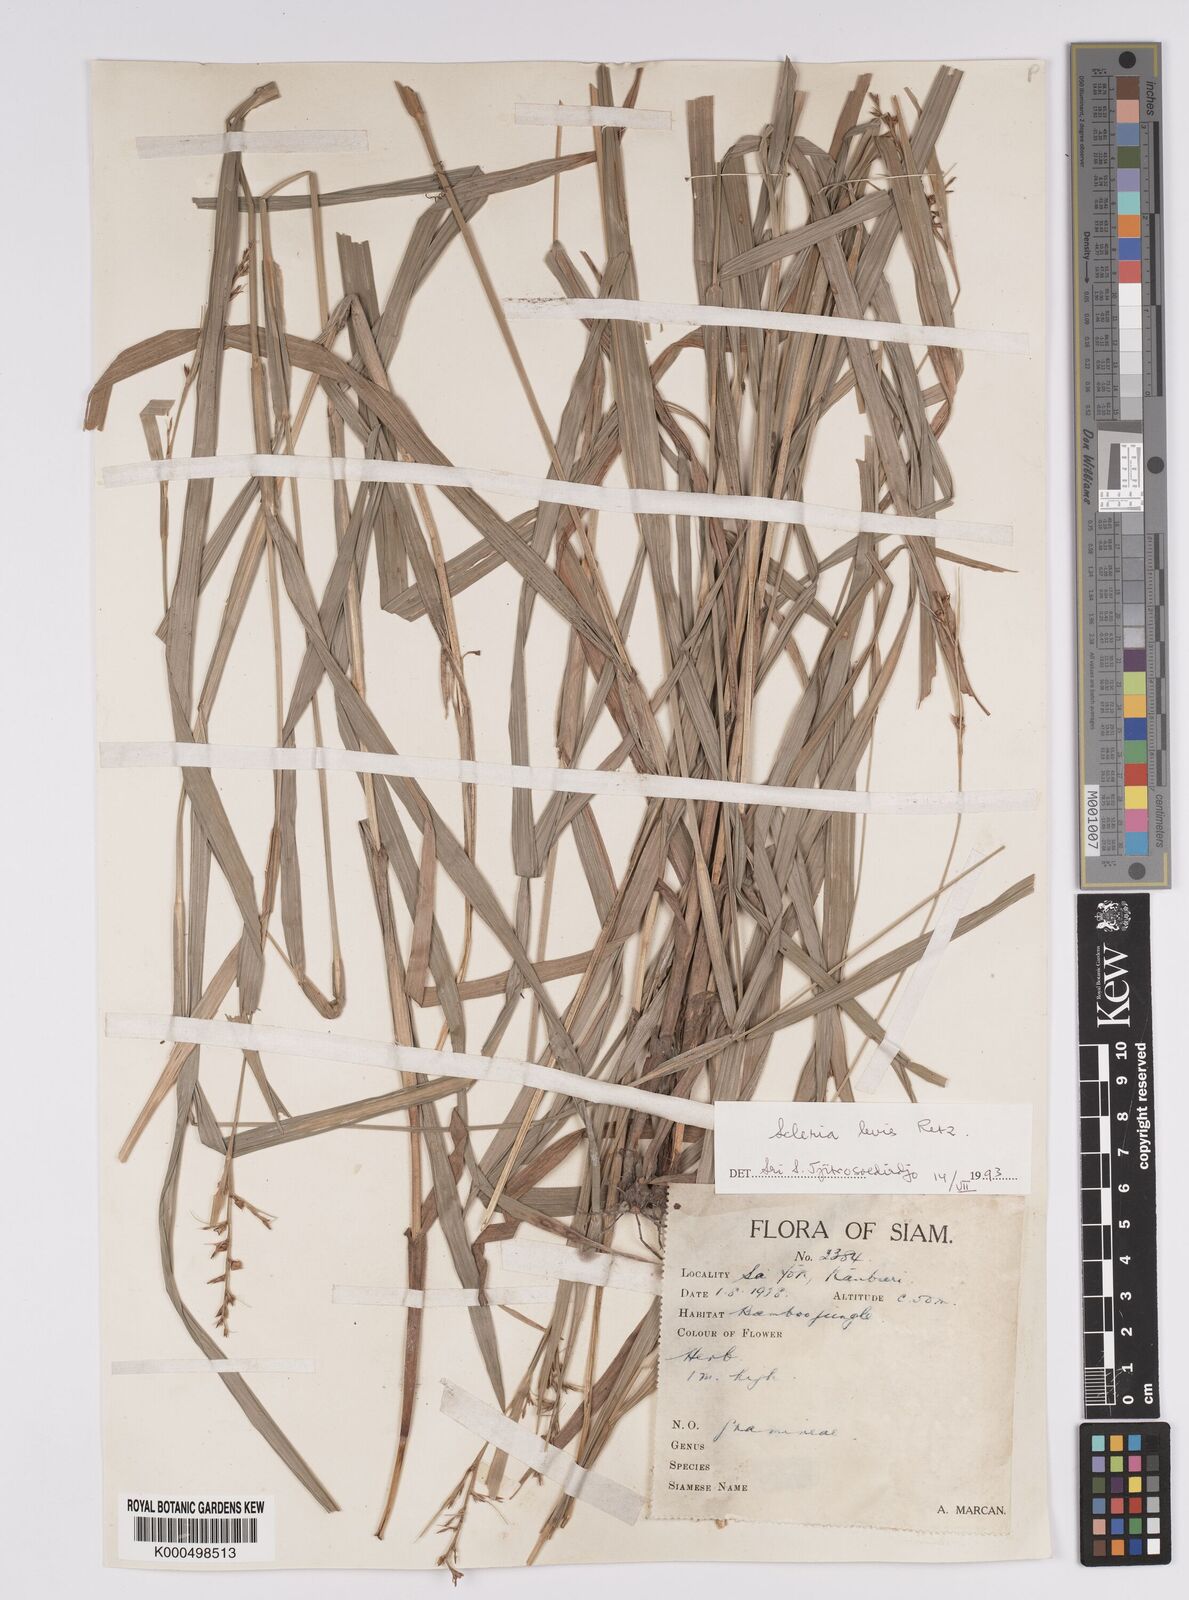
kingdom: Plantae
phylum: Tracheophyta
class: Liliopsida
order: Poales
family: Cyperaceae
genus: Scleria
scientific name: Scleria levis
